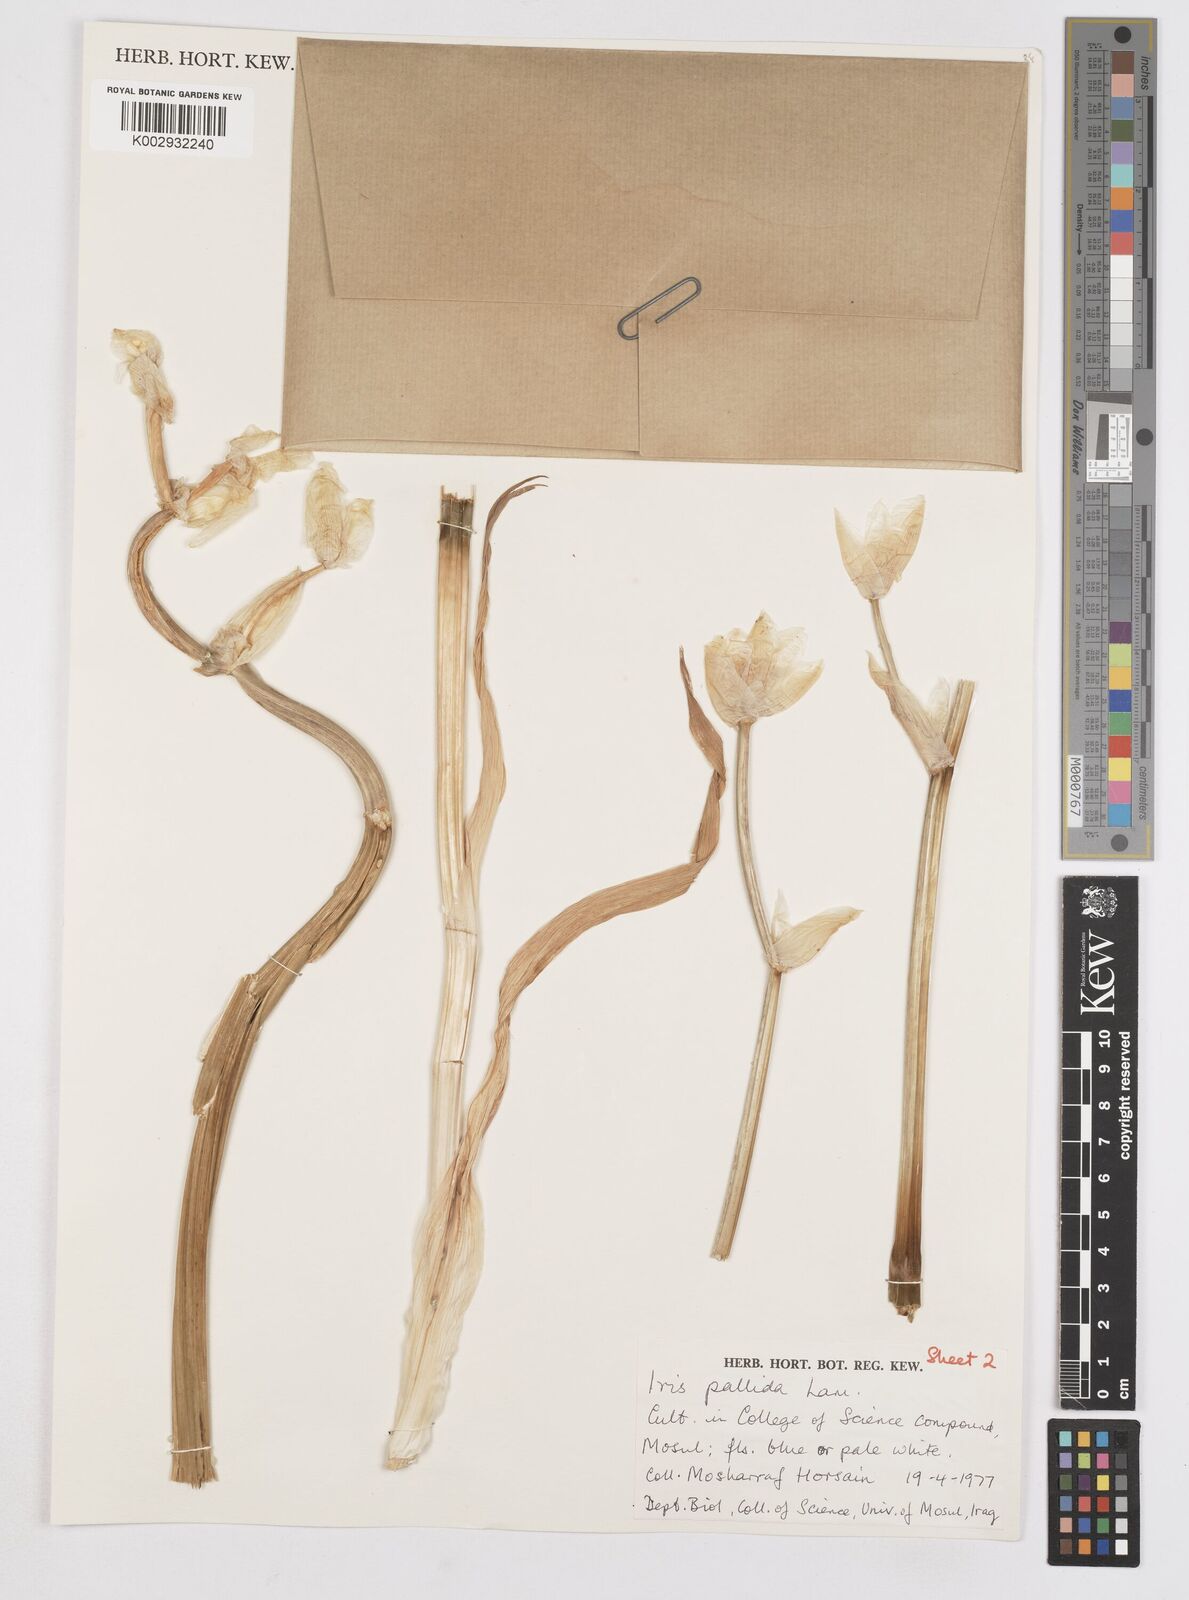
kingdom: Plantae
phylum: Tracheophyta
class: Liliopsida
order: Asparagales
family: Iridaceae
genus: Iris
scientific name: Iris pallida
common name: Sweet iris
